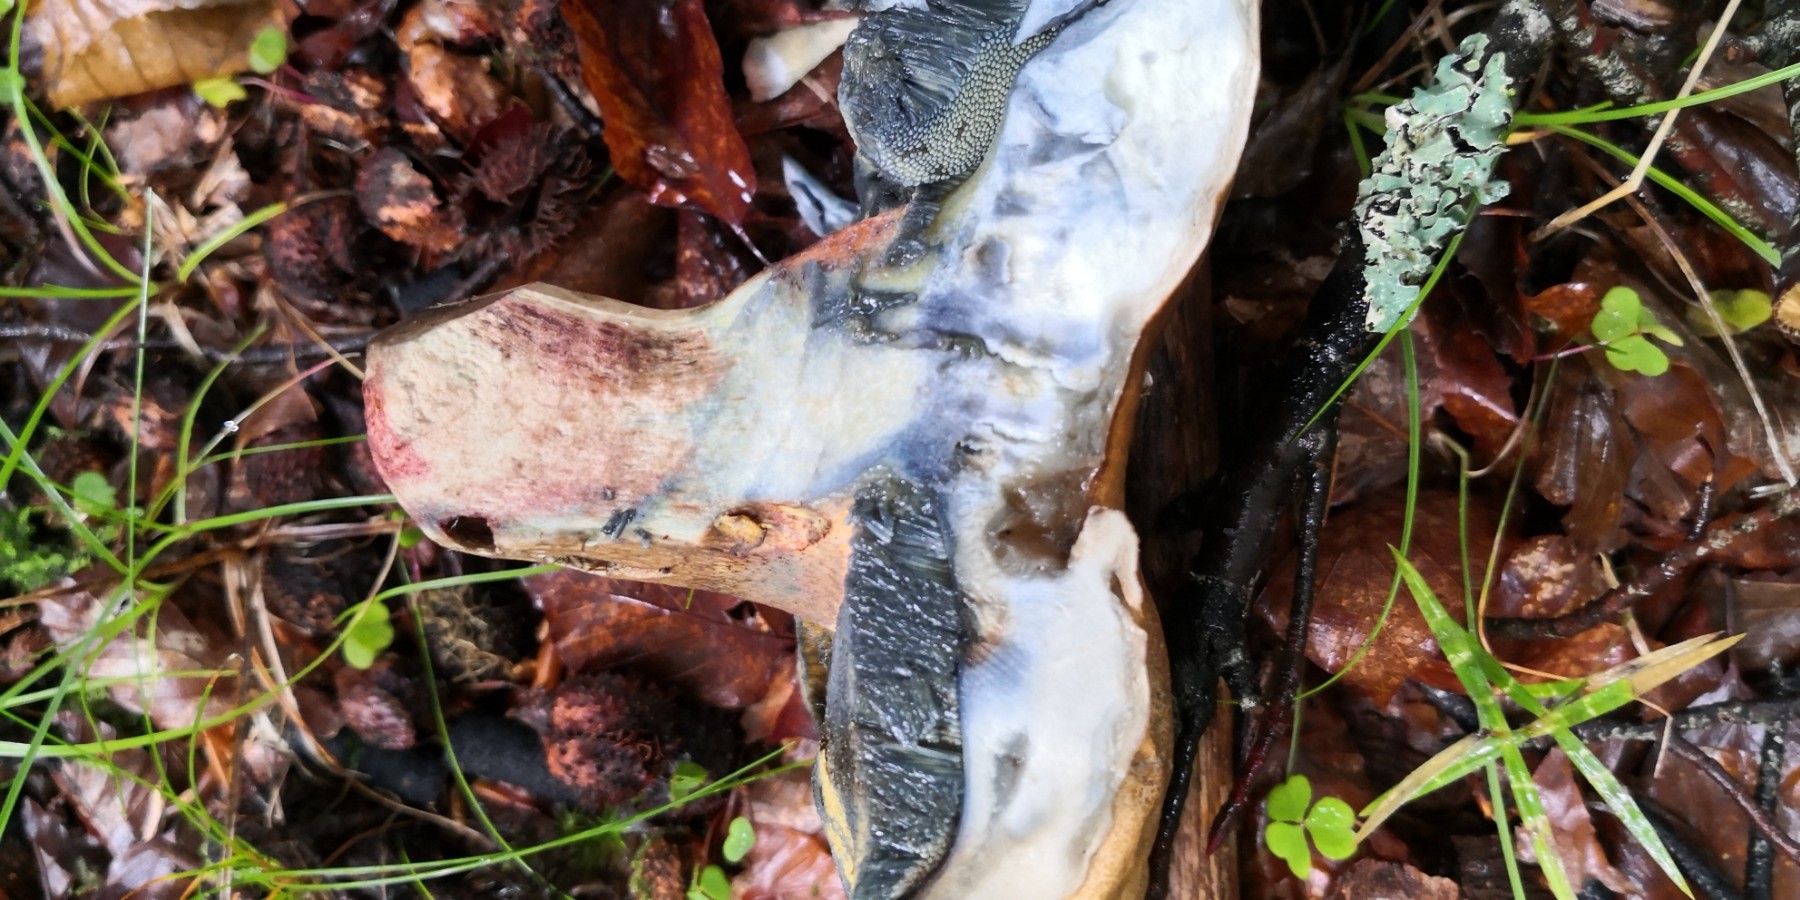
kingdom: Fungi
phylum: Basidiomycota
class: Agaricomycetes
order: Boletales
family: Boletaceae
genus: Caloboletus
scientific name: Caloboletus calopus
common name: skønfodet rørhat
